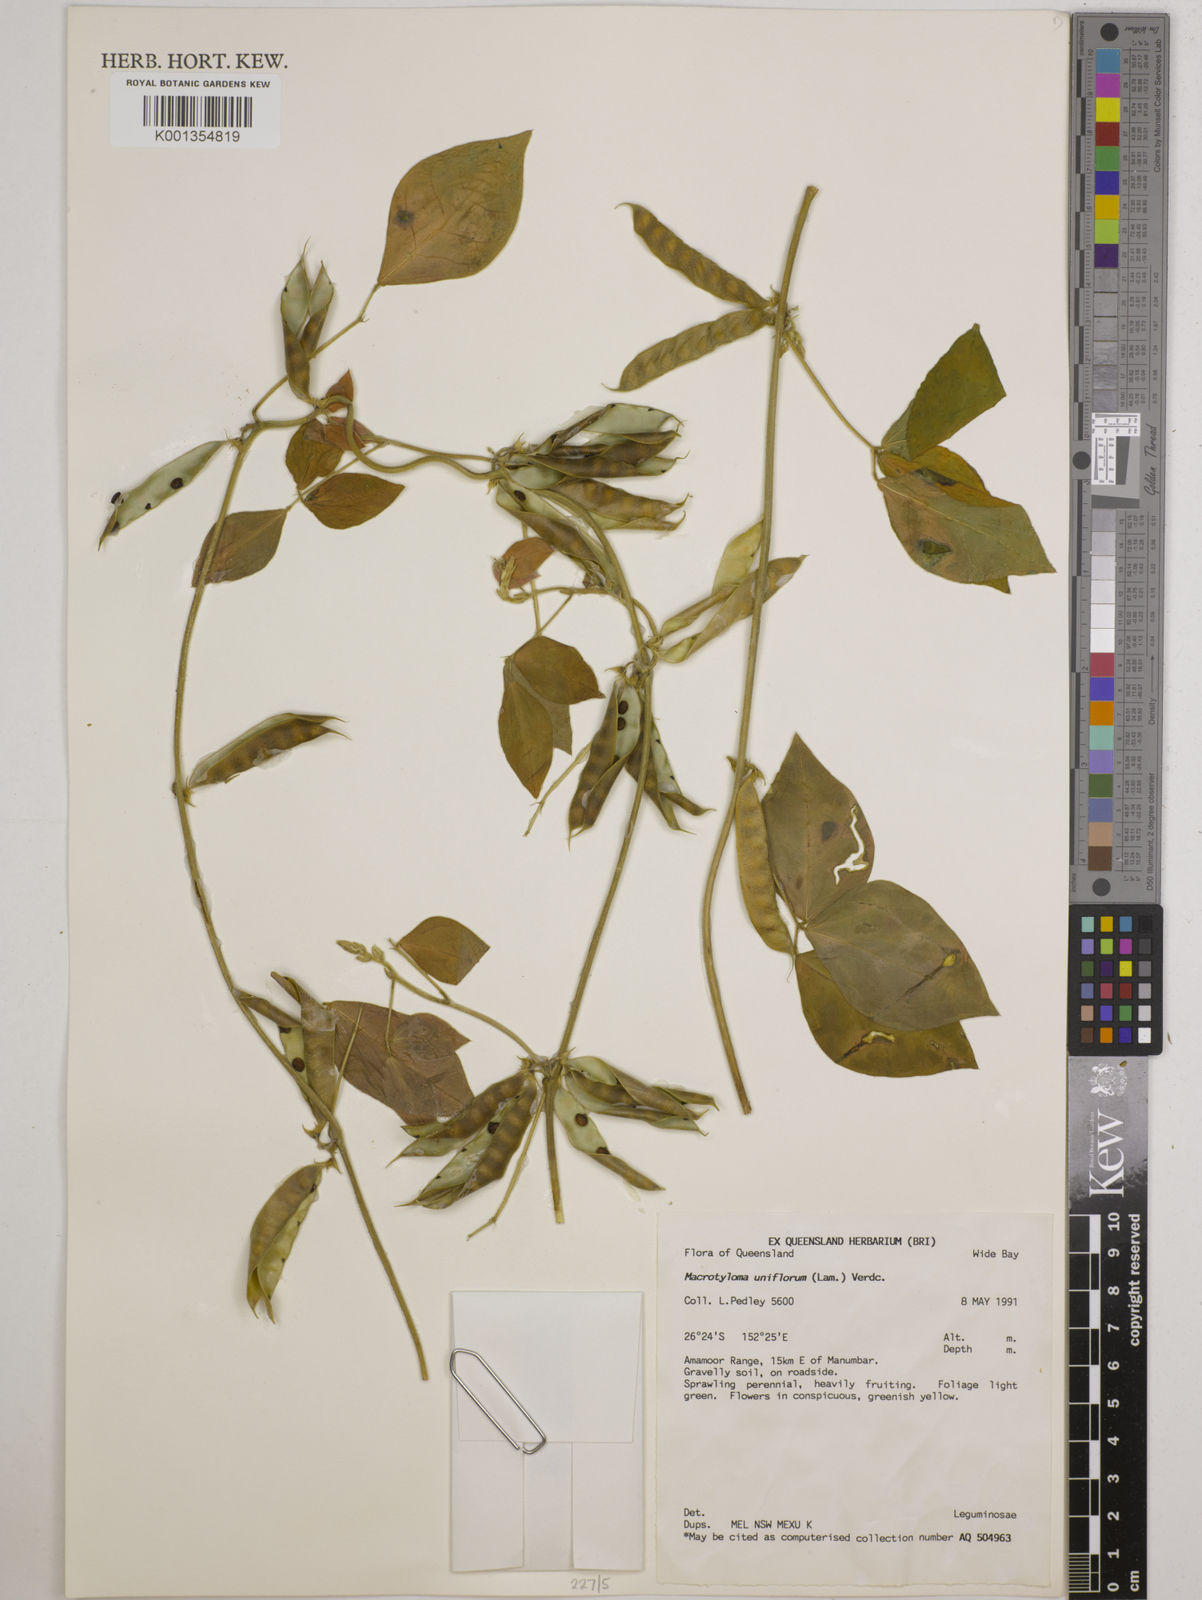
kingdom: Plantae
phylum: Tracheophyta
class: Magnoliopsida
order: Fabales
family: Fabaceae
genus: Macrotyloma
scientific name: Macrotyloma uniflorum
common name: Horse gram
